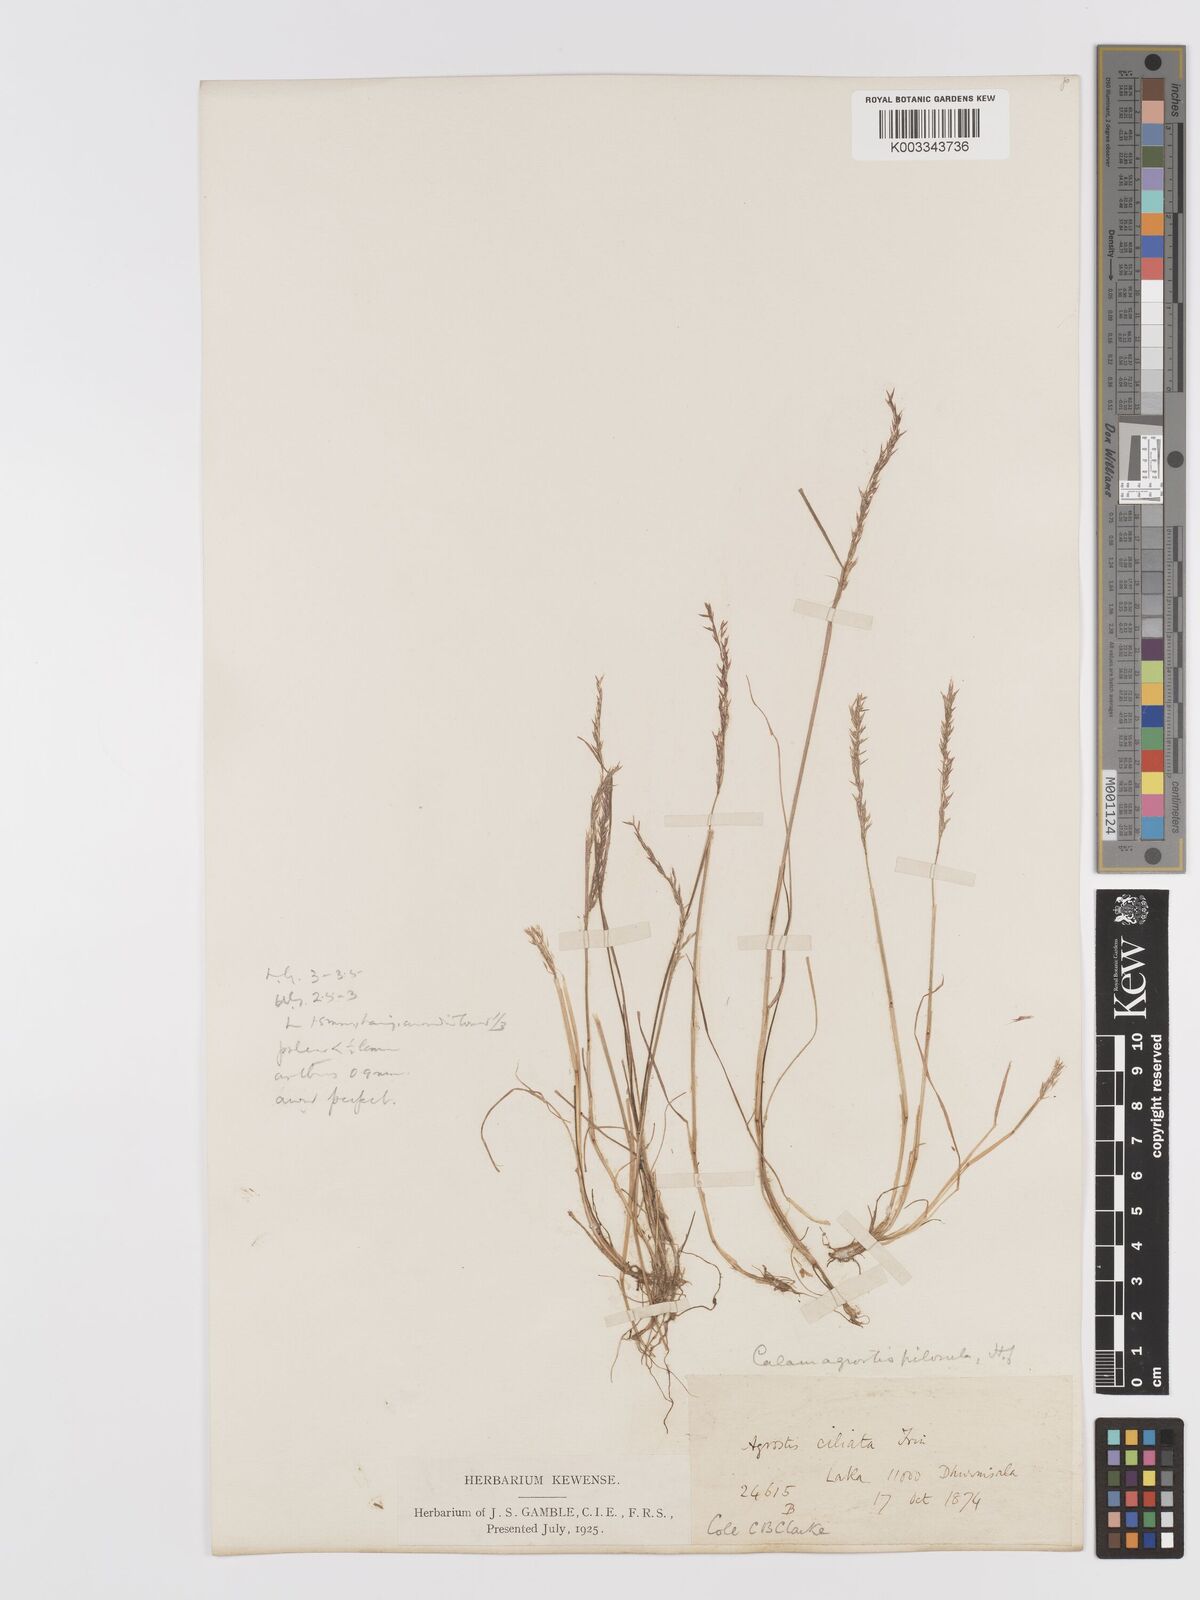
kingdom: Plantae
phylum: Tracheophyta
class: Liliopsida
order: Poales
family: Poaceae
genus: Agrostis
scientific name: Agrostis pilosula
